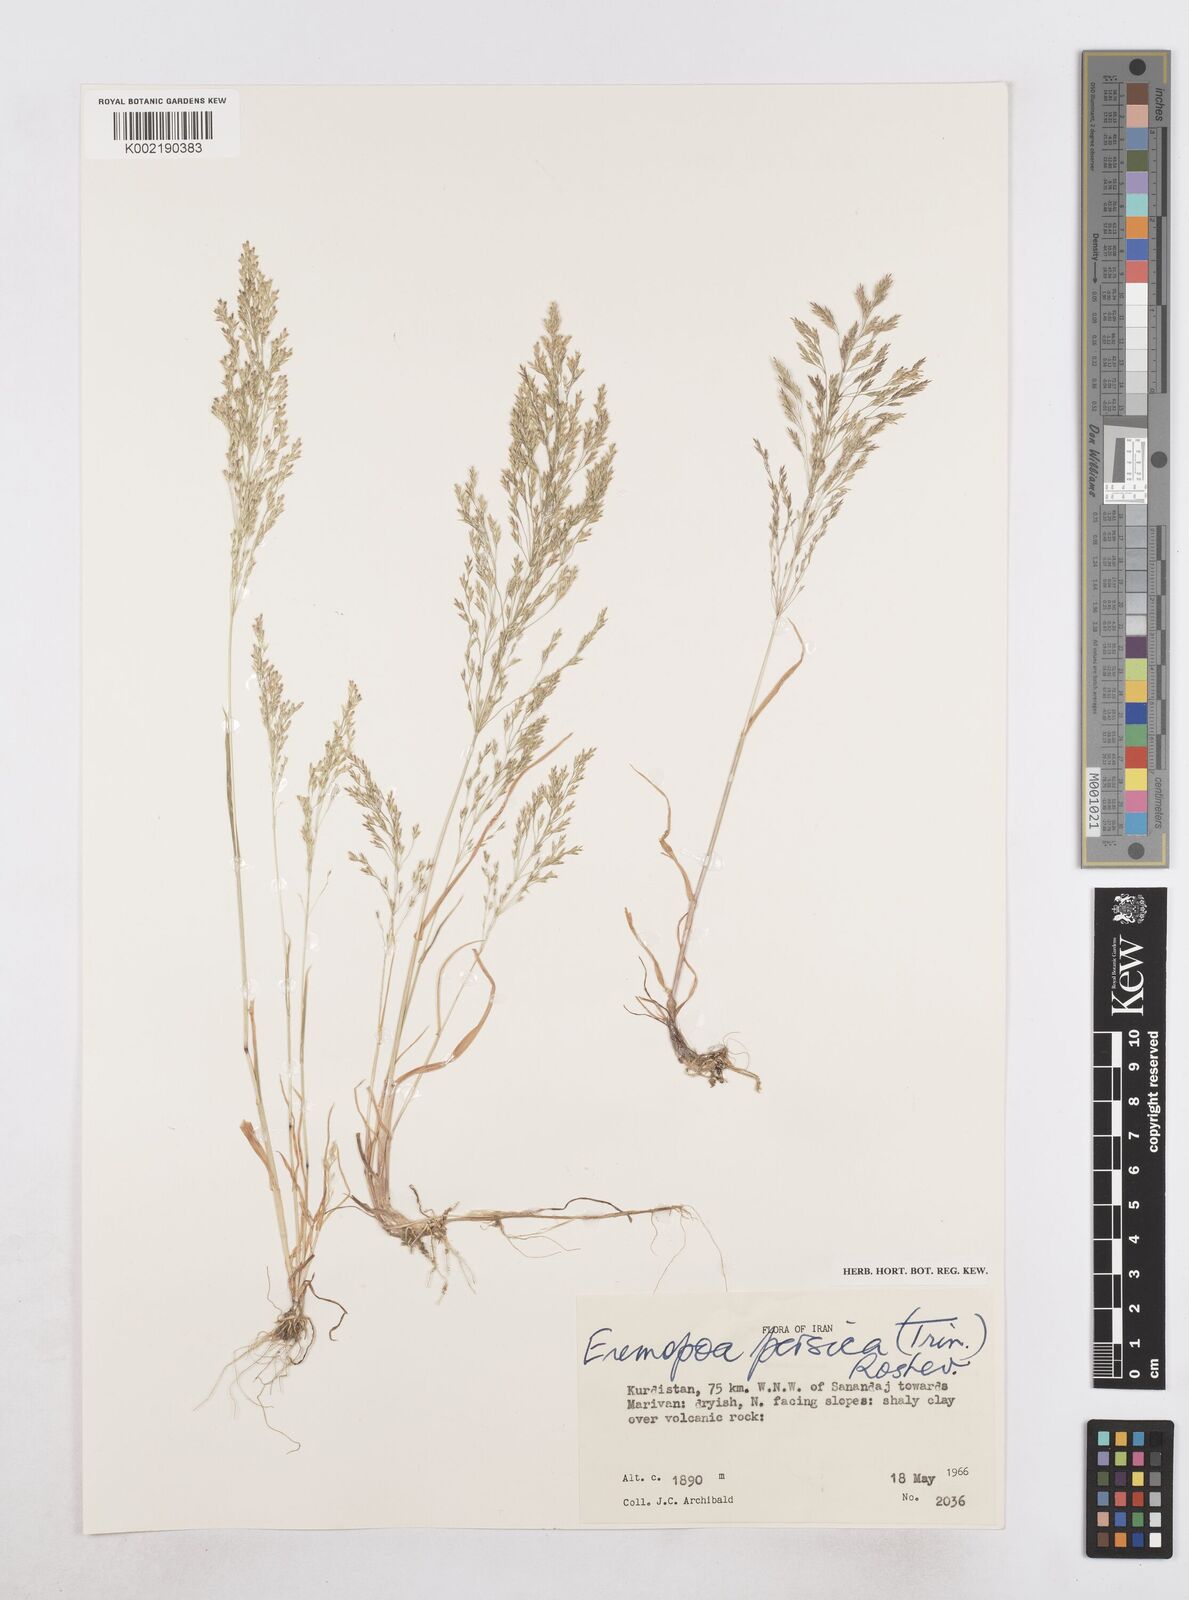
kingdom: Plantae
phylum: Tracheophyta
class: Liliopsida
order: Poales
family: Poaceae
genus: Poa
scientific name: Poa persica
